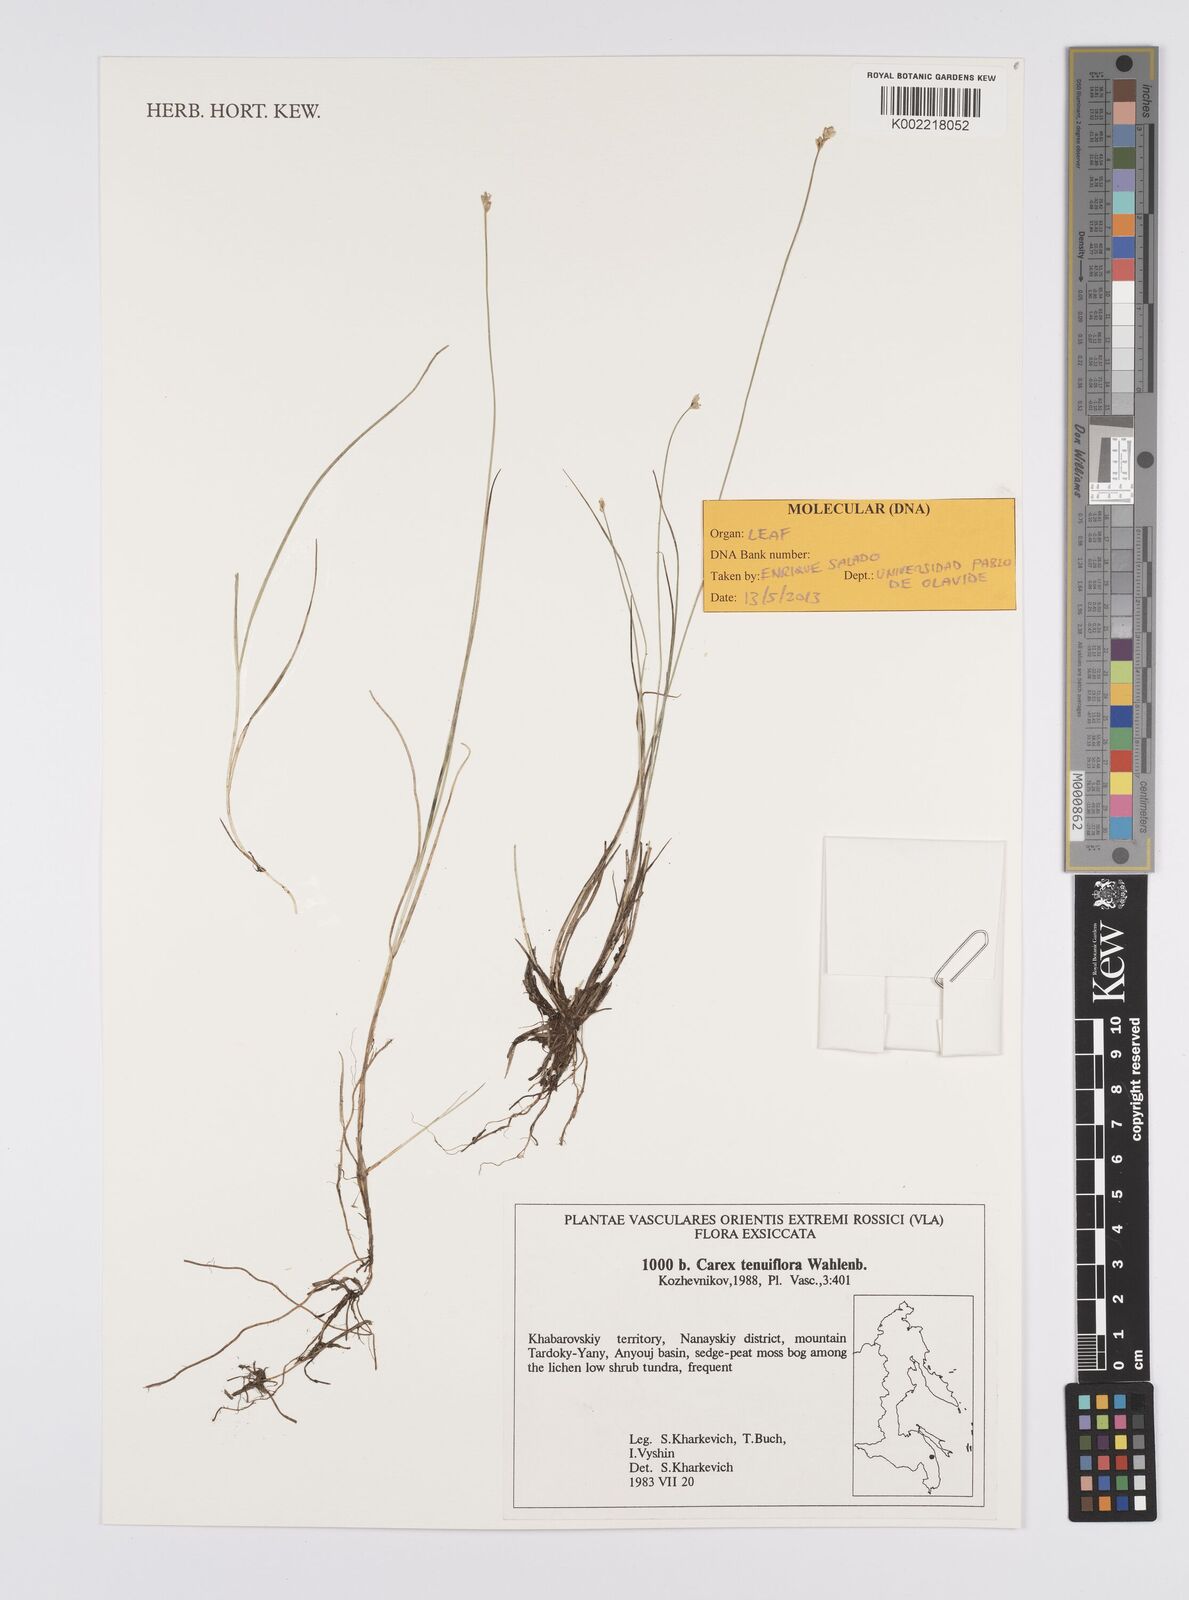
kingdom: Plantae
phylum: Tracheophyta
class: Liliopsida
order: Poales
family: Cyperaceae
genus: Carex
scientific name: Carex tenuiflora
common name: Sparse-flowered sedge
